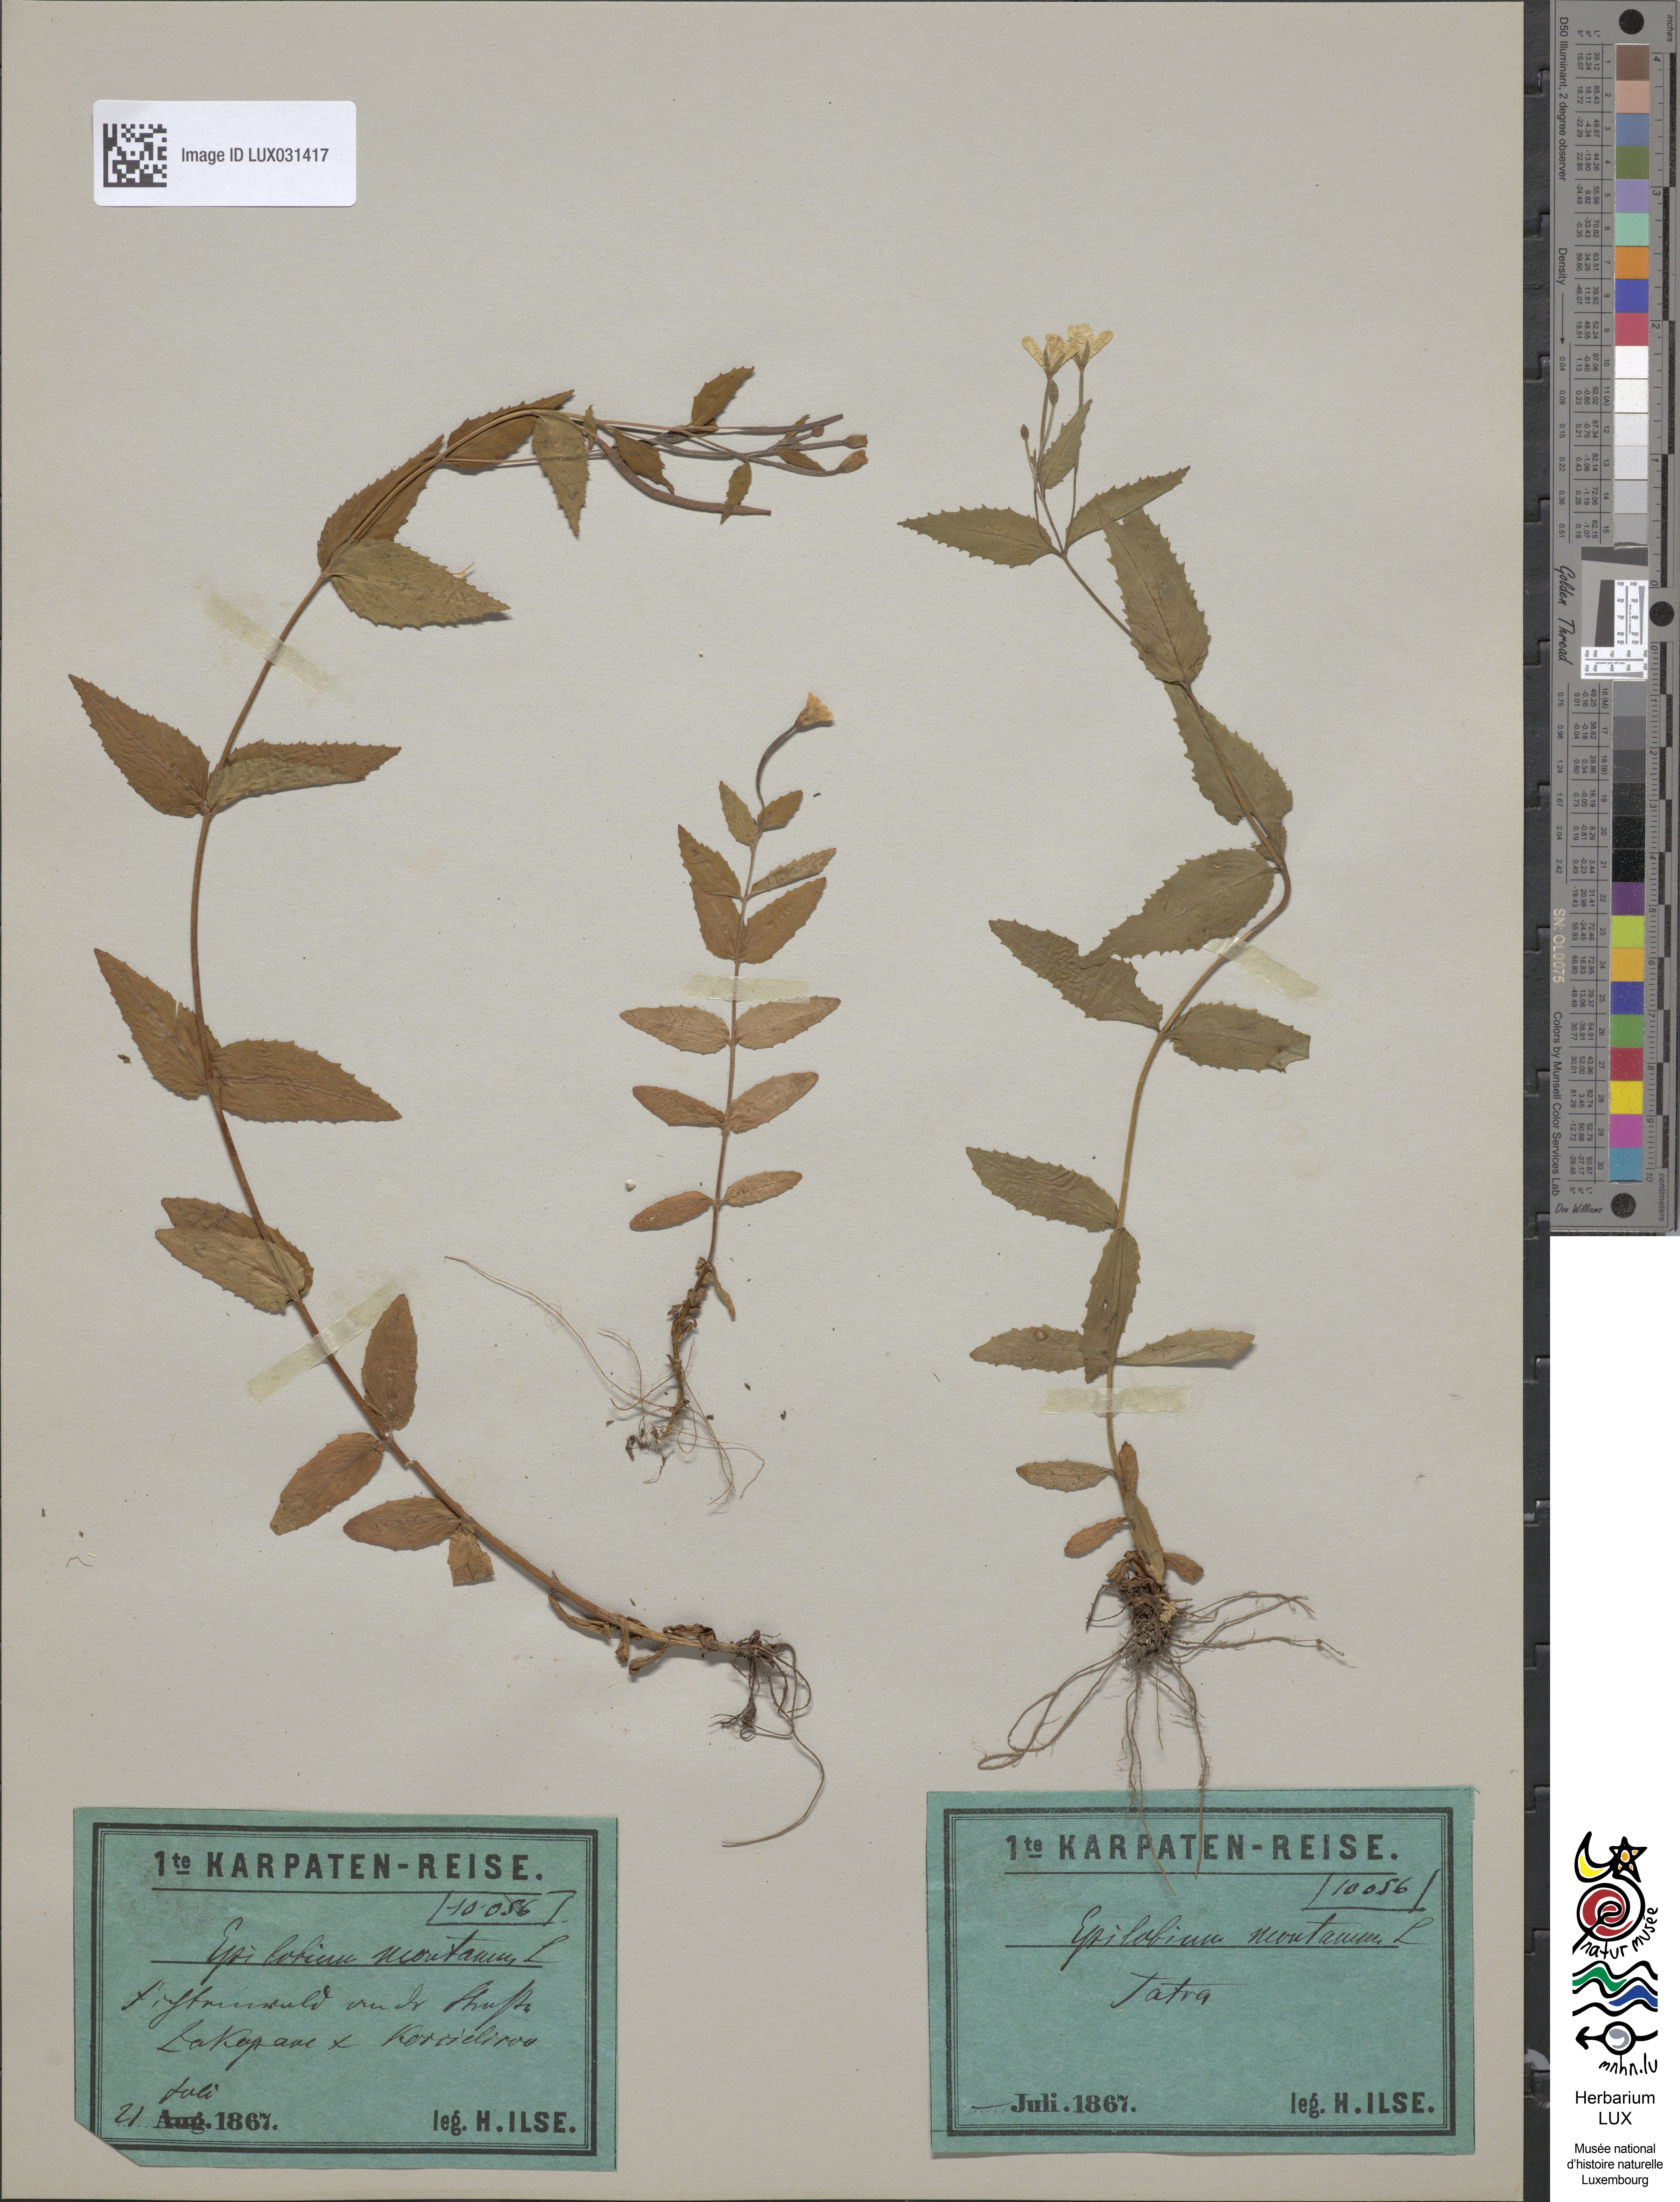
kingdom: Plantae
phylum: Tracheophyta
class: Magnoliopsida
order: Myrtales
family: Onagraceae
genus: Epilobium
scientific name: Epilobium montanum
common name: Broad-leaved willowherb
